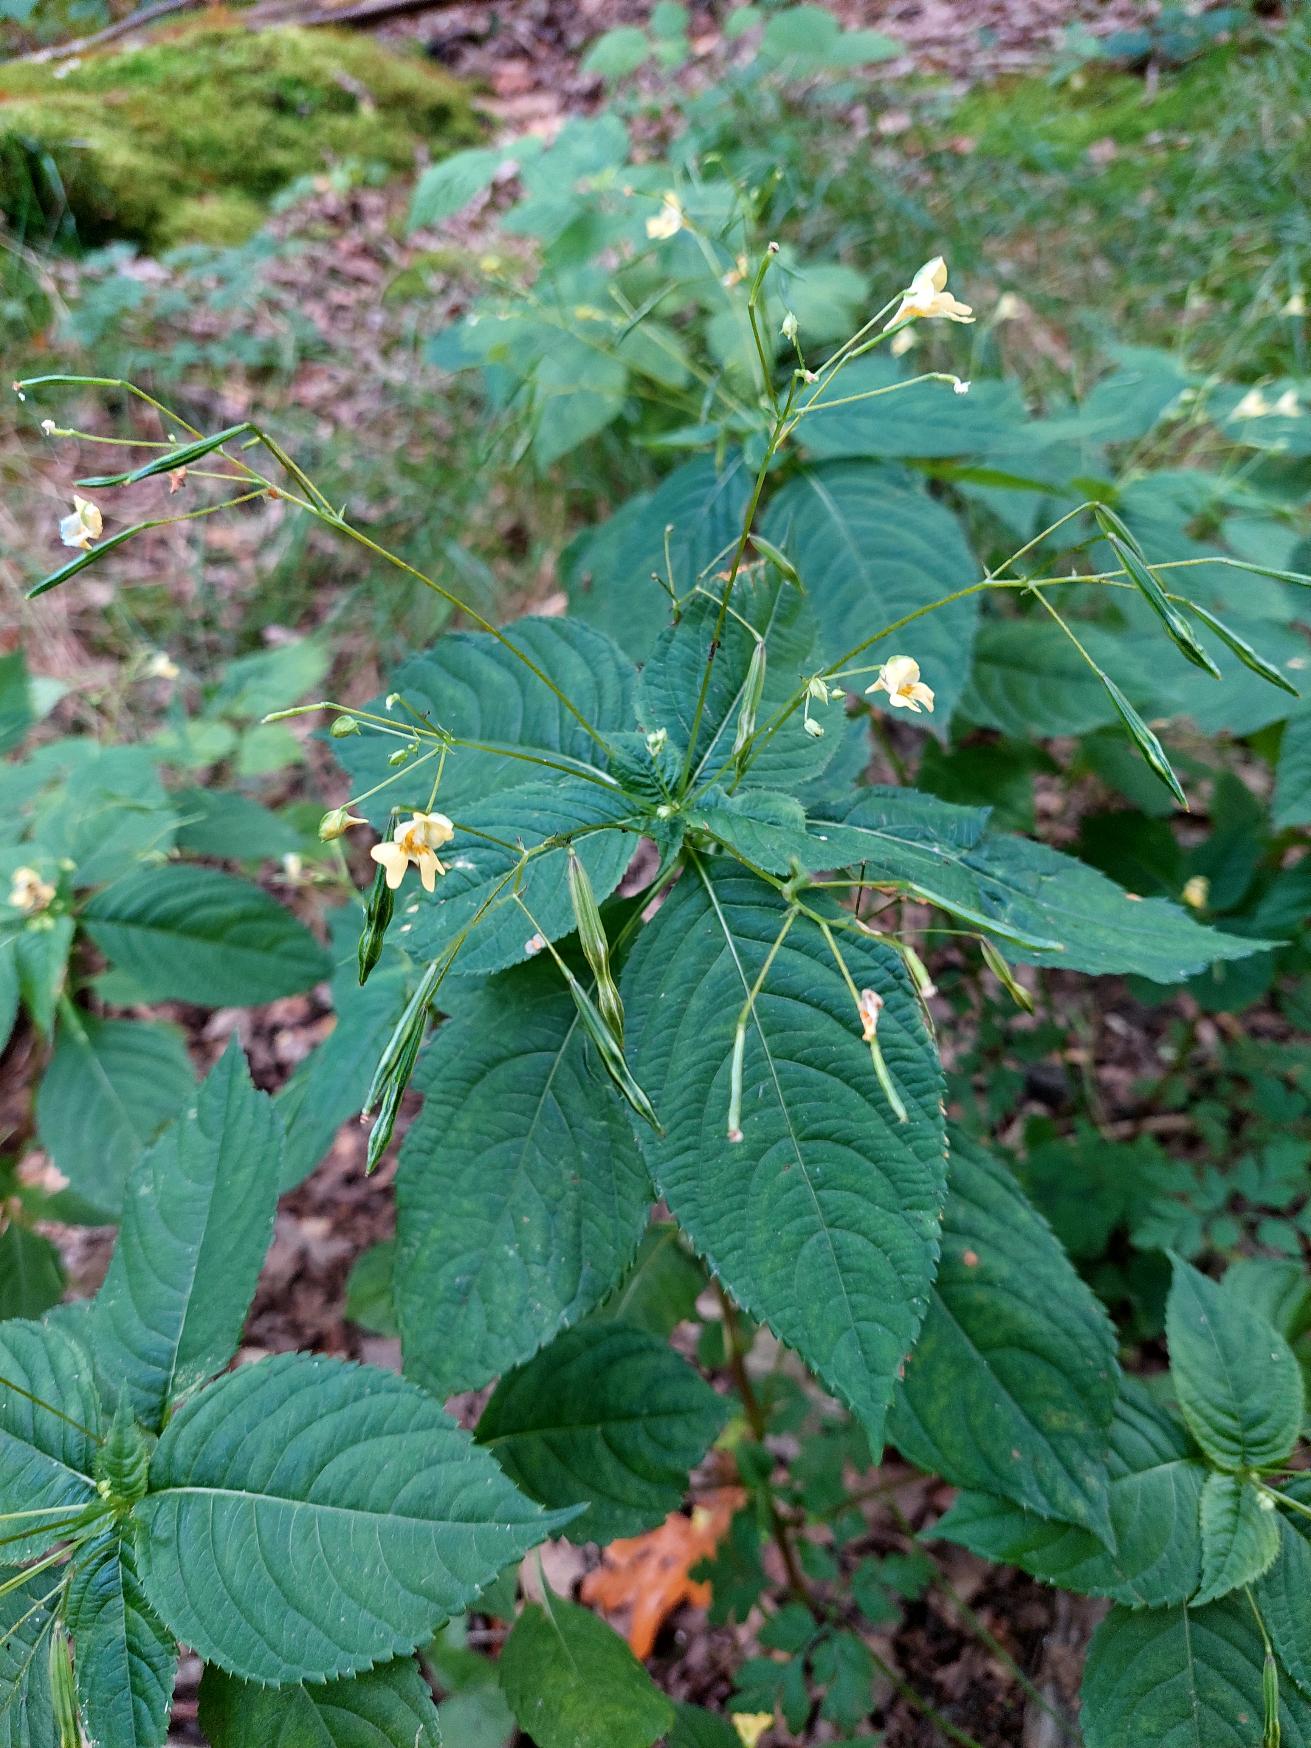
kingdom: Plantae
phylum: Tracheophyta
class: Magnoliopsida
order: Ericales
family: Balsaminaceae
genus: Impatiens
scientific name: Impatiens parviflora
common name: Småblomstret balsamin
